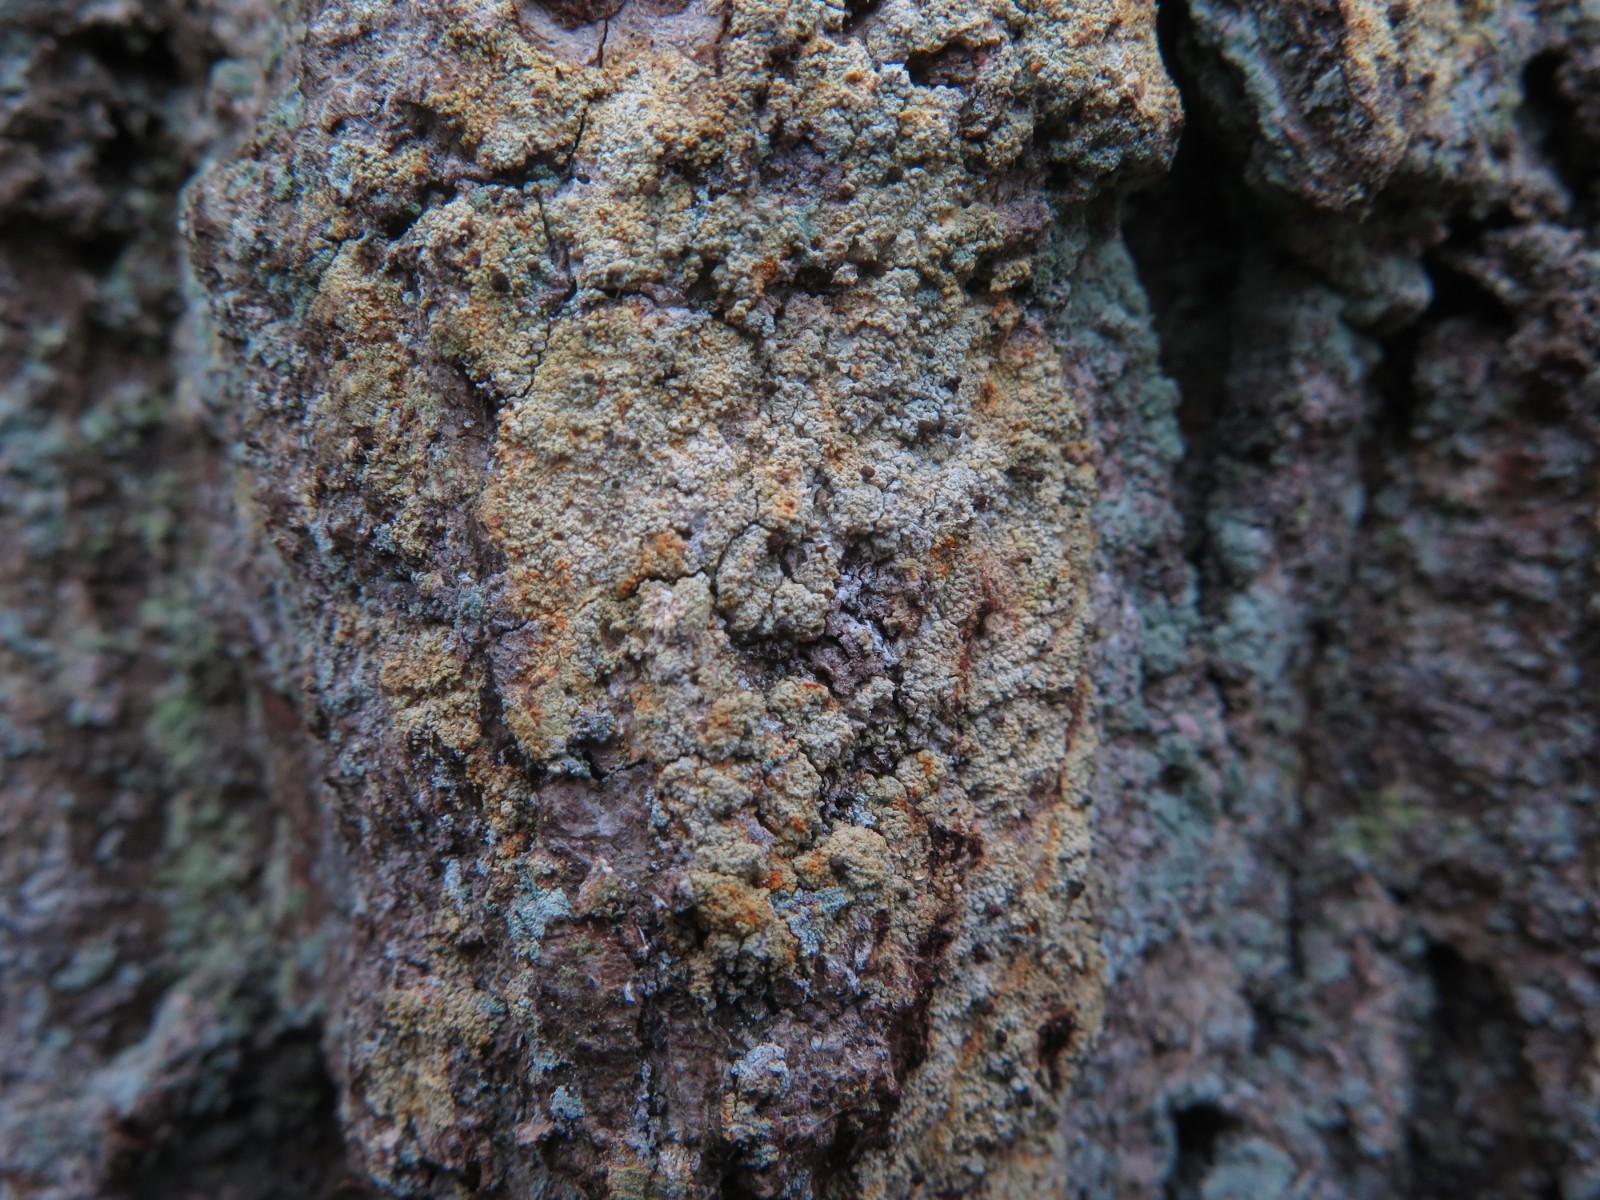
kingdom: Fungi
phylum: Ascomycota
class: Coniocybomycetes
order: Coniocybales
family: Coniocybaceae
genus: Chaenotheca
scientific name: Chaenotheca ferruginea
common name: rustbrun knappenålslav
